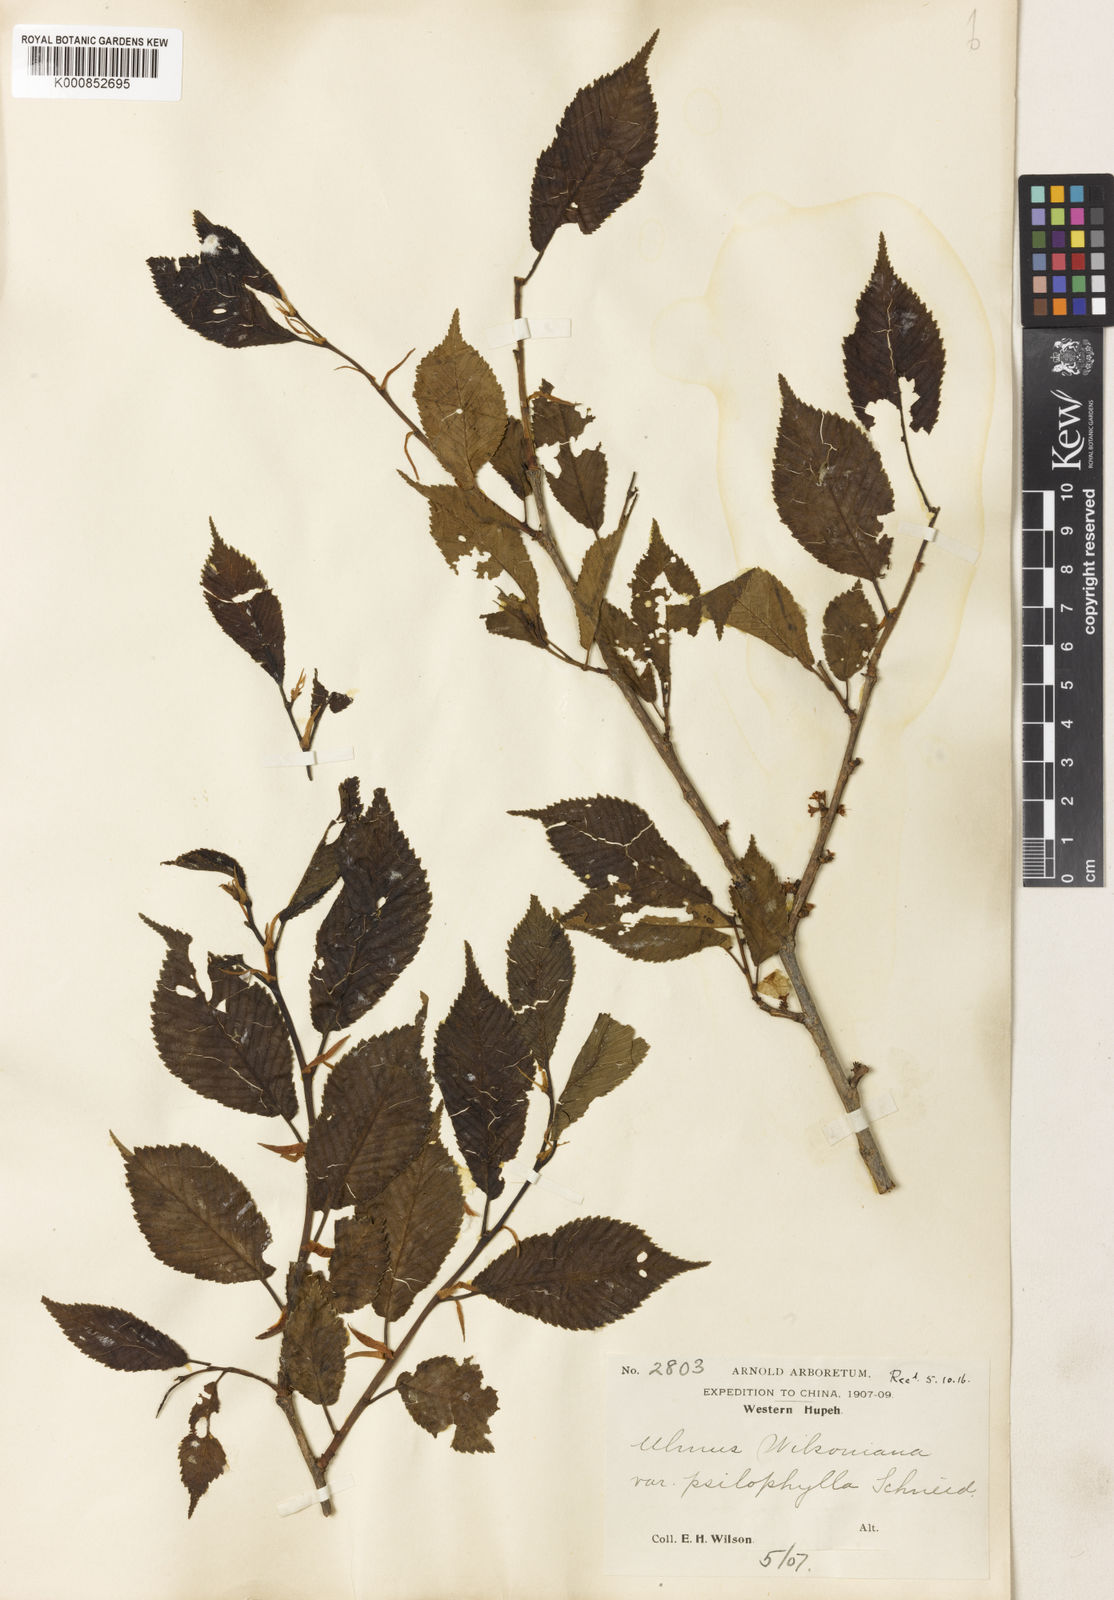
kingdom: Plantae
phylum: Tracheophyta
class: Magnoliopsida
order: Rosales
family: Ulmaceae
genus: Ulmus
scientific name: Ulmus davidiana
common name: Japanese elm
